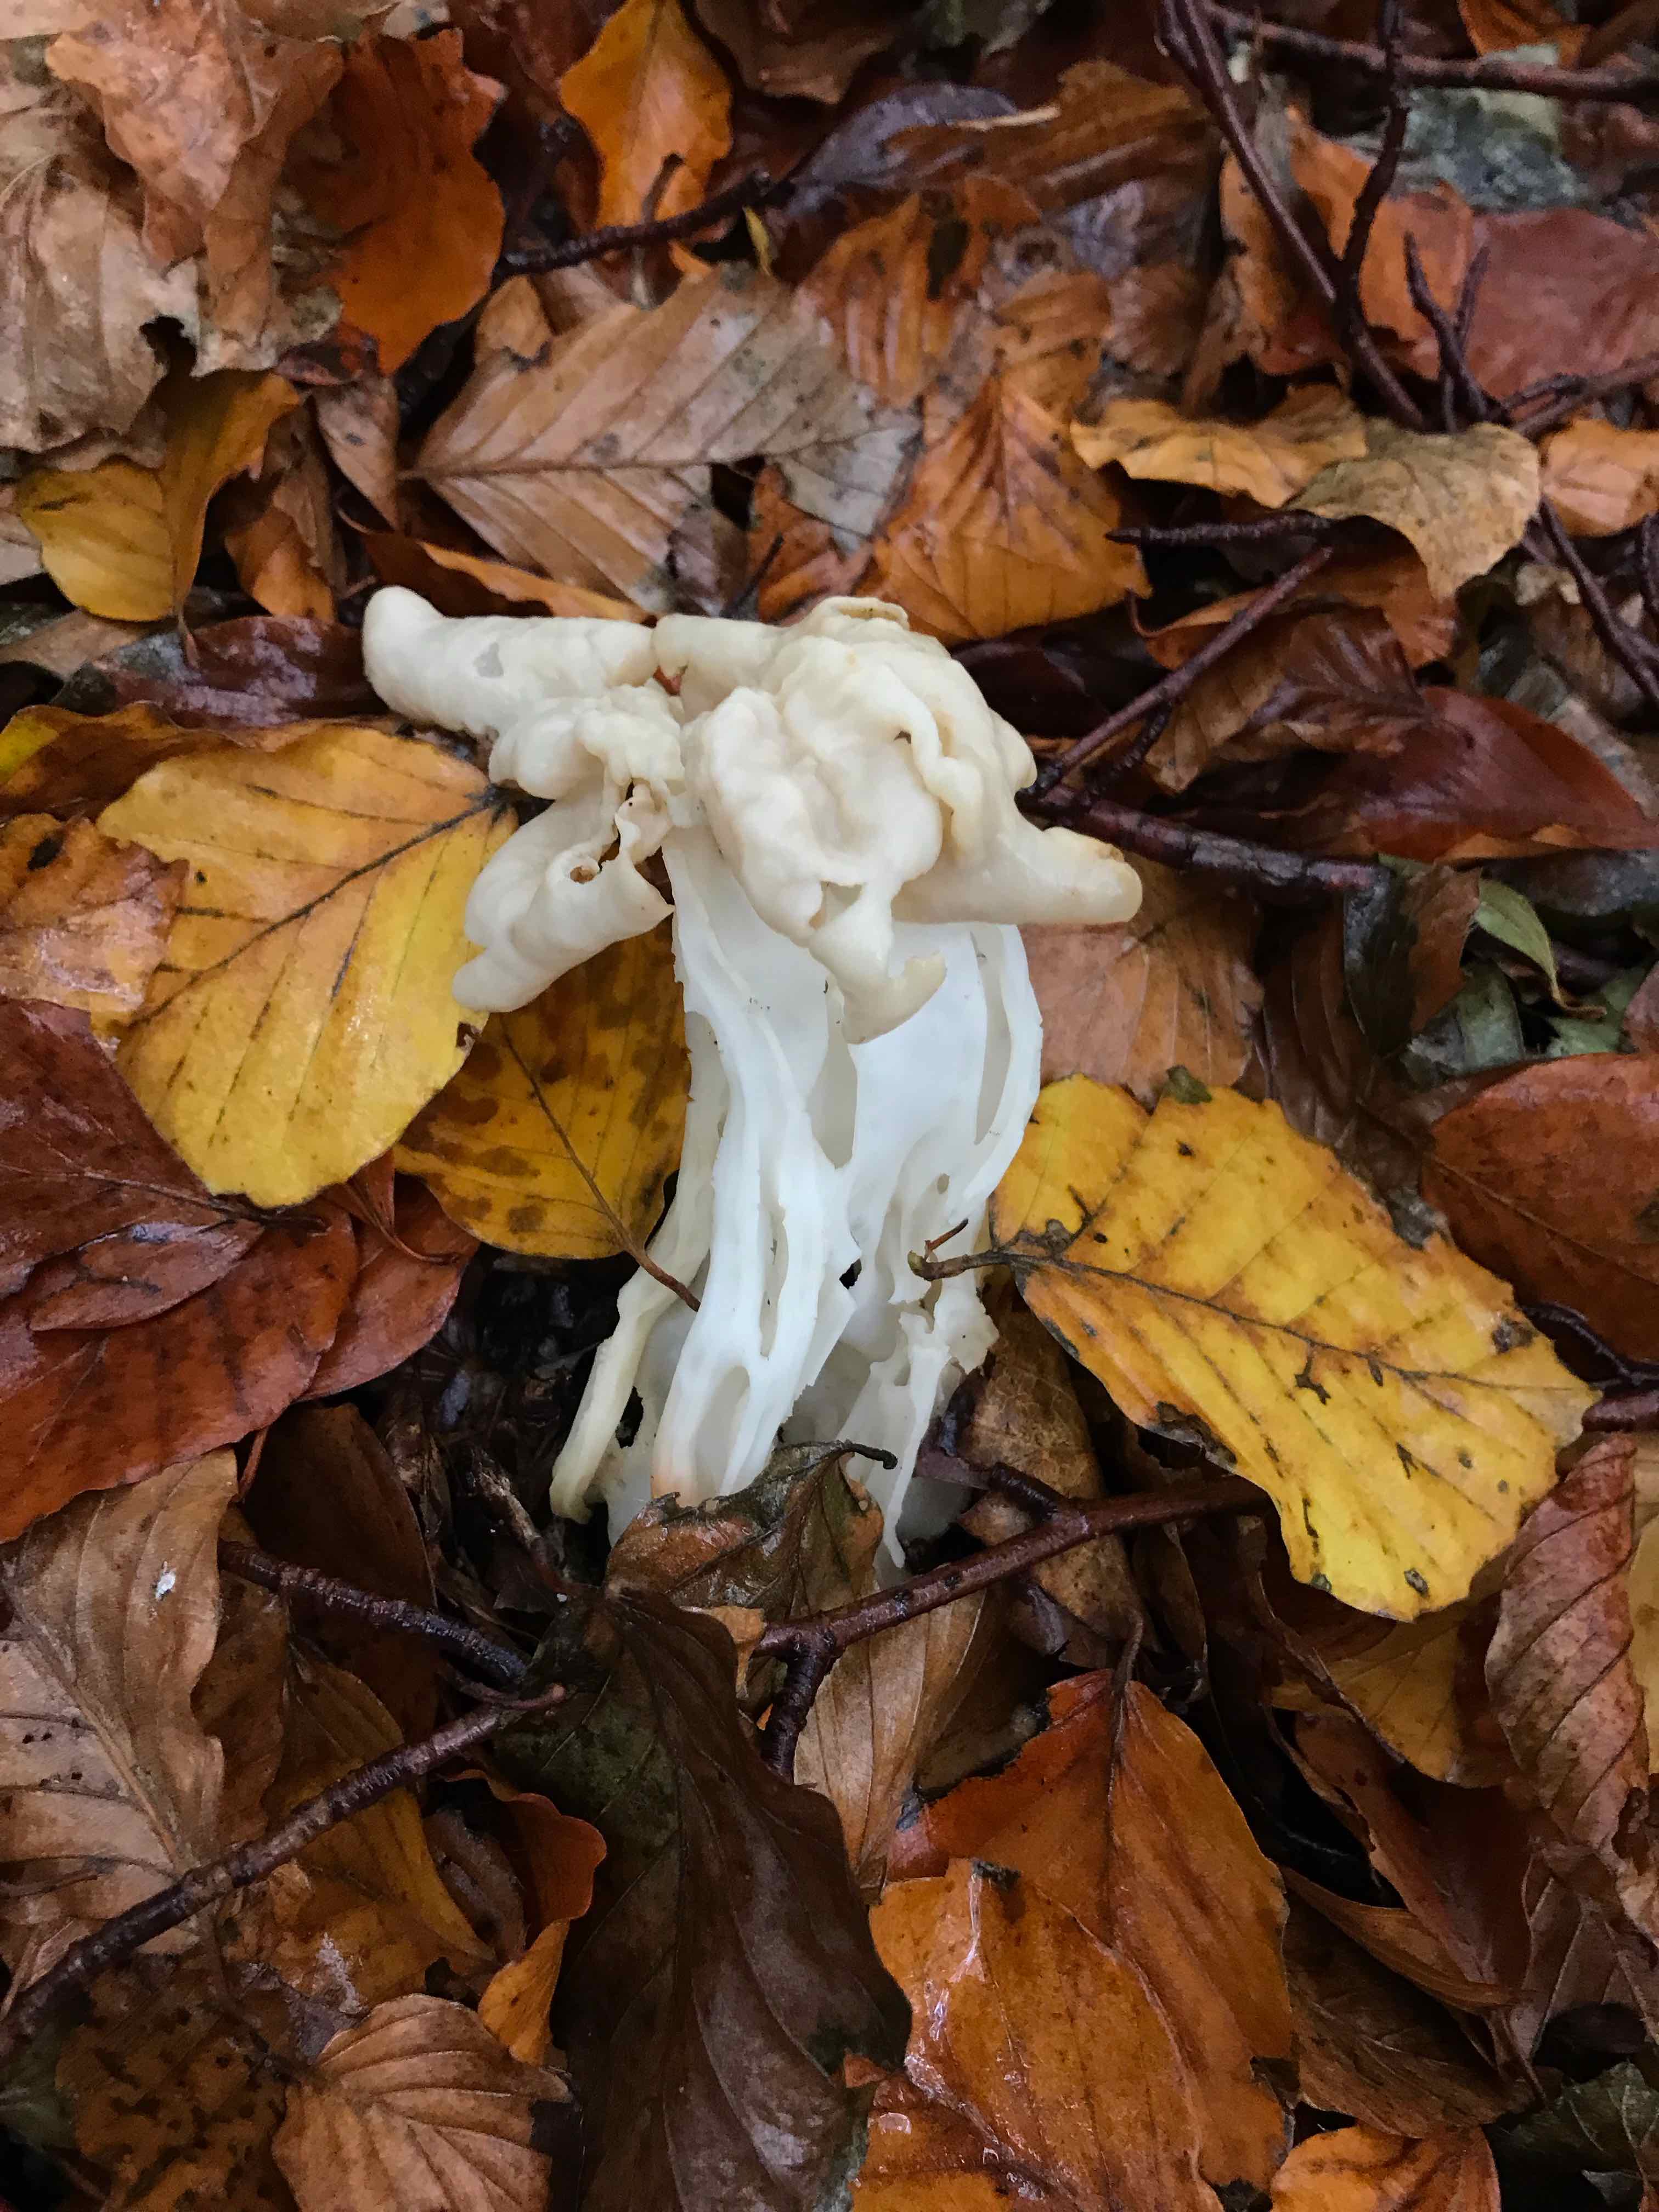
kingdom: Fungi
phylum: Ascomycota
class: Pezizomycetes
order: Pezizales
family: Helvellaceae
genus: Helvella
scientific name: Helvella crispa
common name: kruset foldhat
